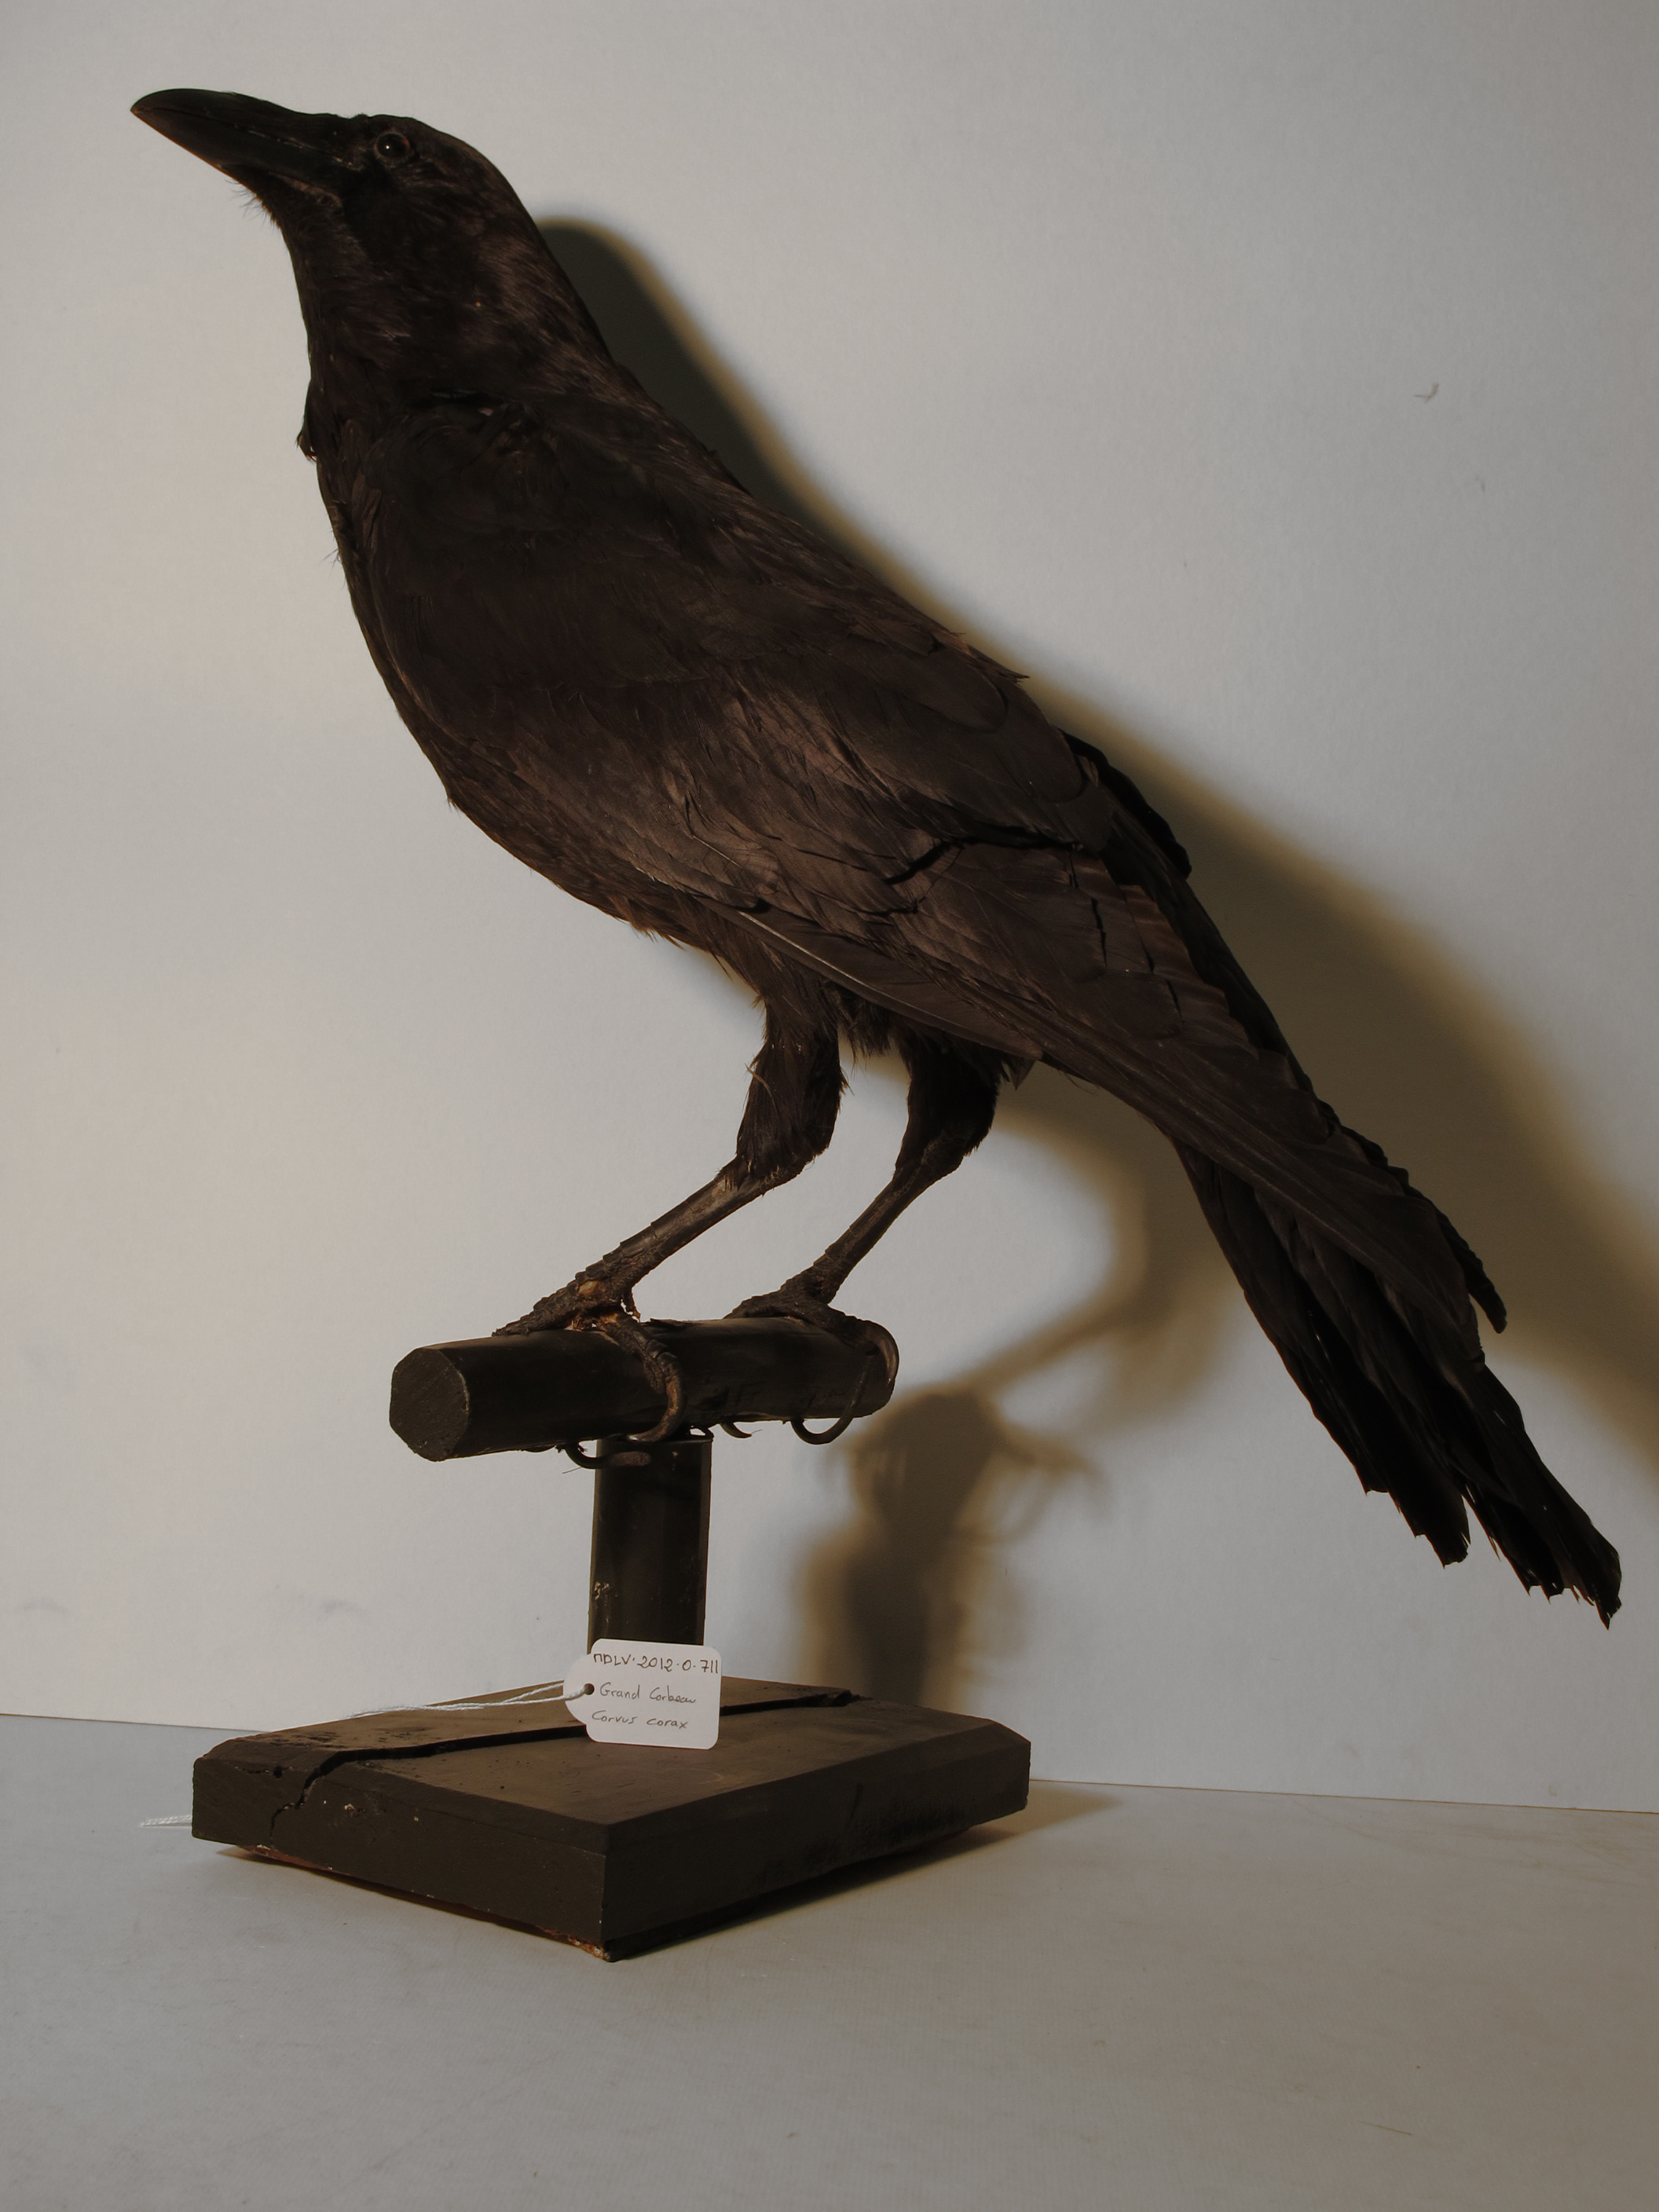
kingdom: Animalia
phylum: Chordata
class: Aves
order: Passeriformes
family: Corvidae
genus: Corvus
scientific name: Corvus corax
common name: Common Raven
